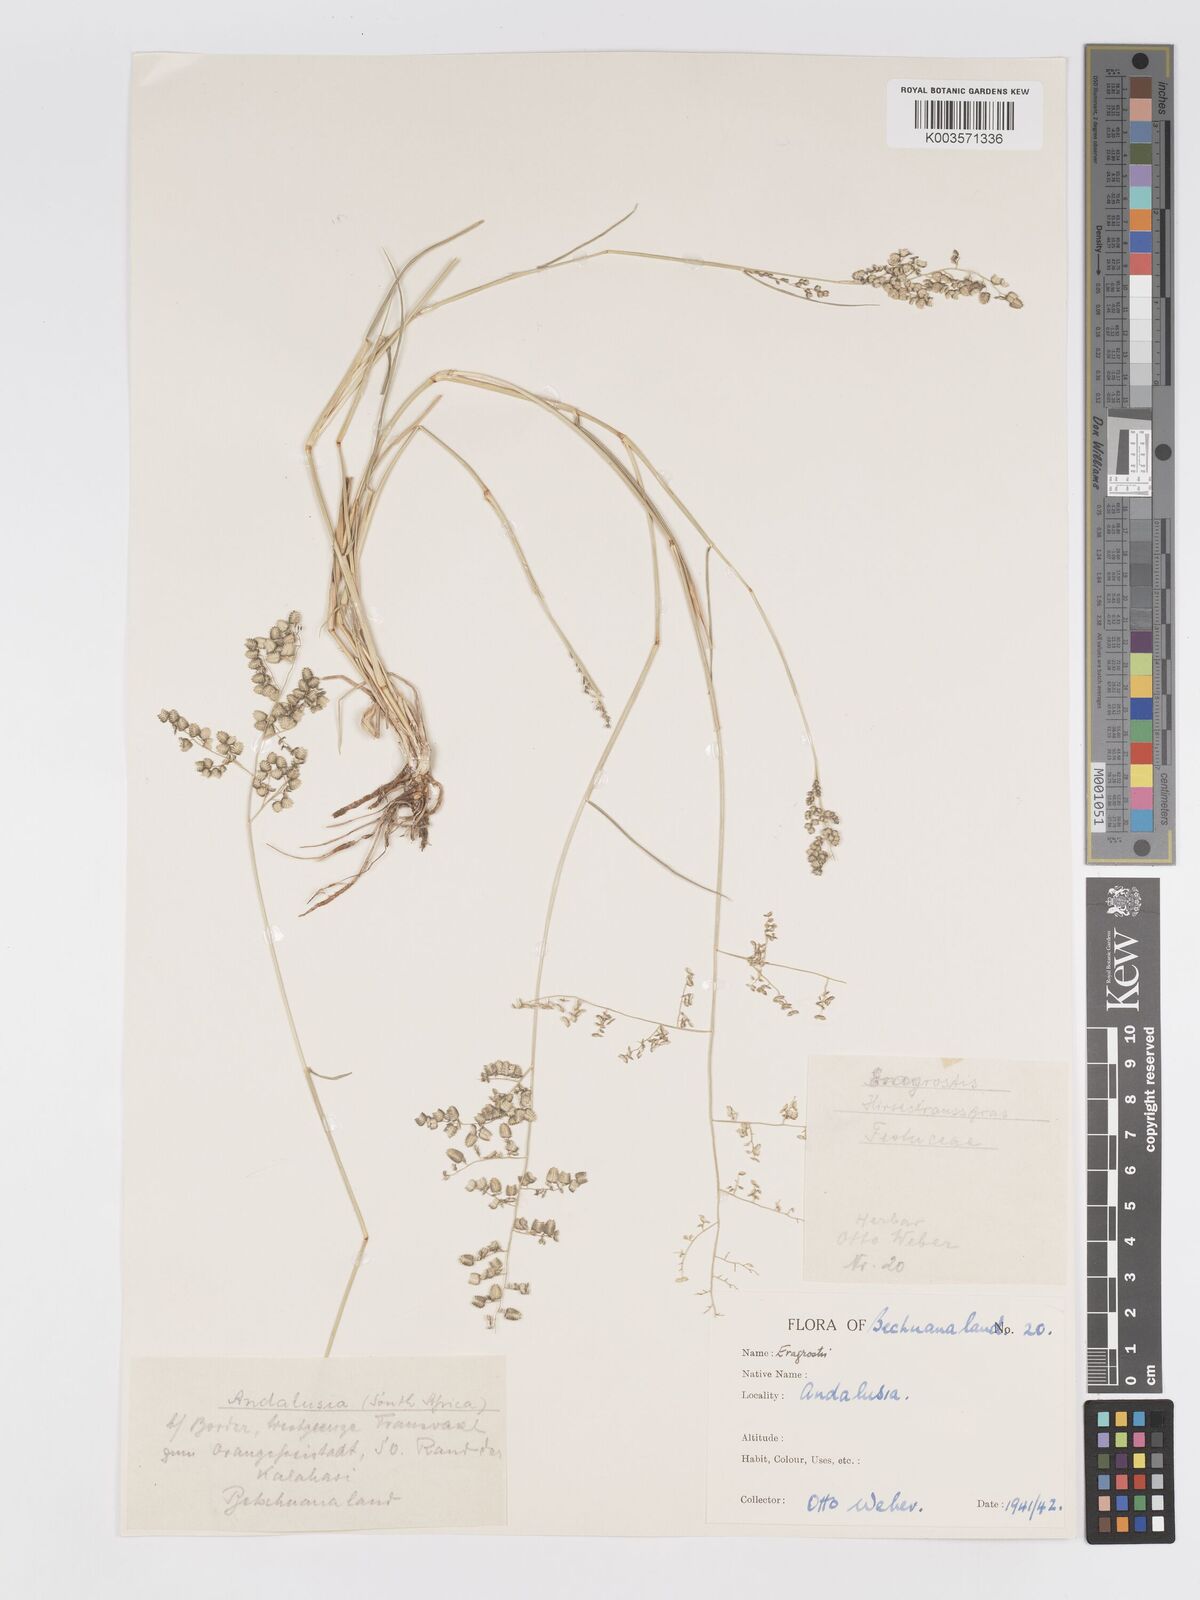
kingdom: Plantae
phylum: Tracheophyta
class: Liliopsida
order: Poales
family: Poaceae
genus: Eragrostis
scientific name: Eragrostis echinochloidea
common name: African lovegrass
